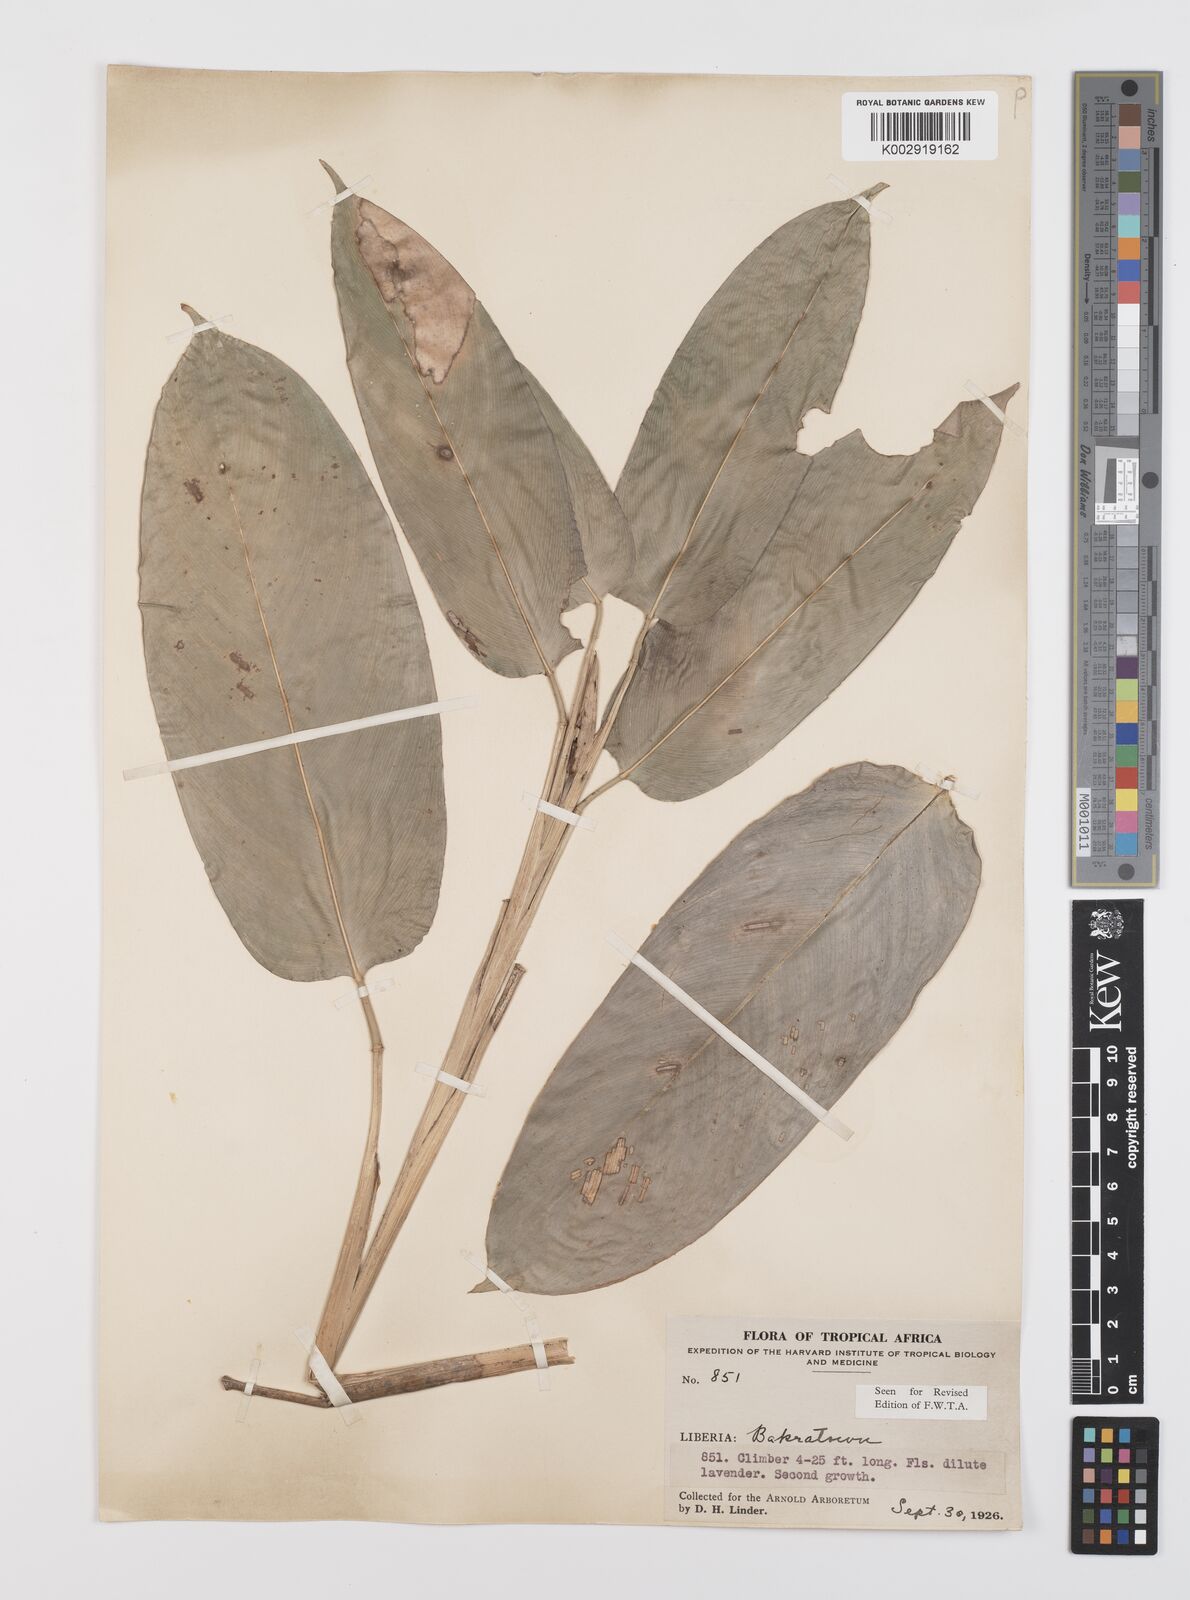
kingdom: Plantae
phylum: Tracheophyta
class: Liliopsida
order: Zingiberales
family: Marantaceae
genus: Hypselodelphys
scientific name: Hypselodelphys violacea
